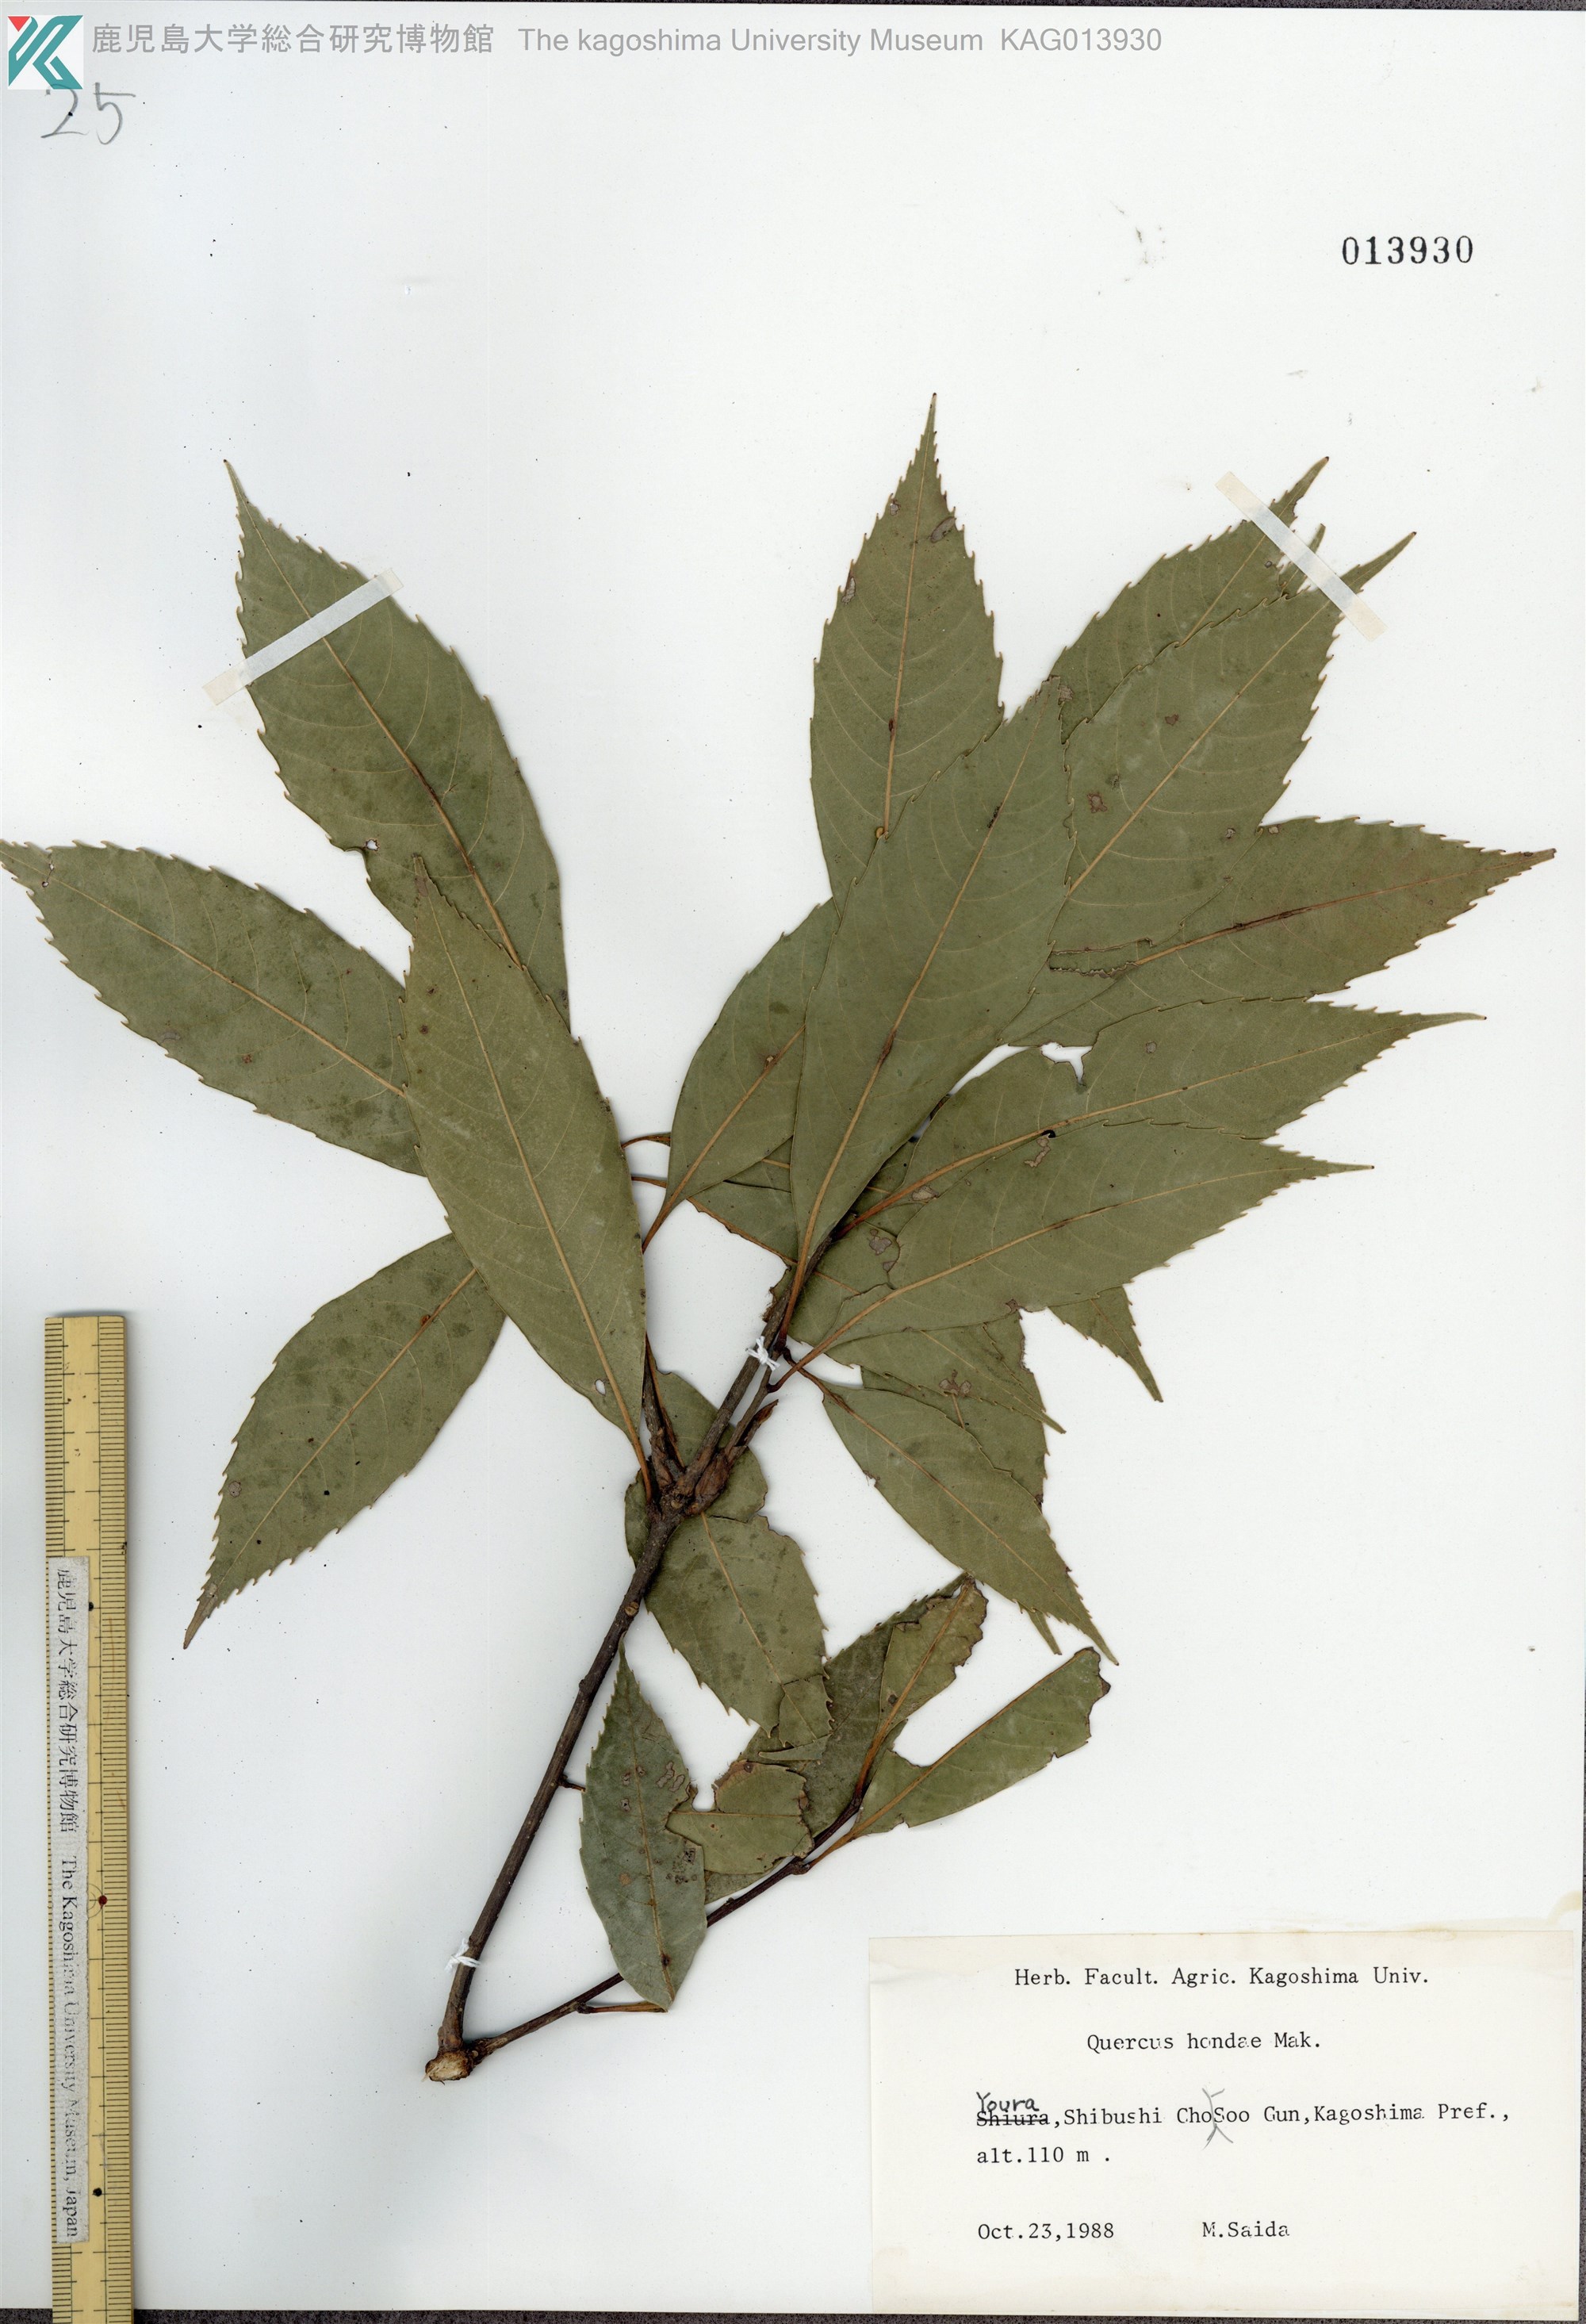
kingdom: Plantae
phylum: Tracheophyta
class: Magnoliopsida
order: Fagales
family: Fagaceae
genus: Quercus
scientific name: Quercus hondae
